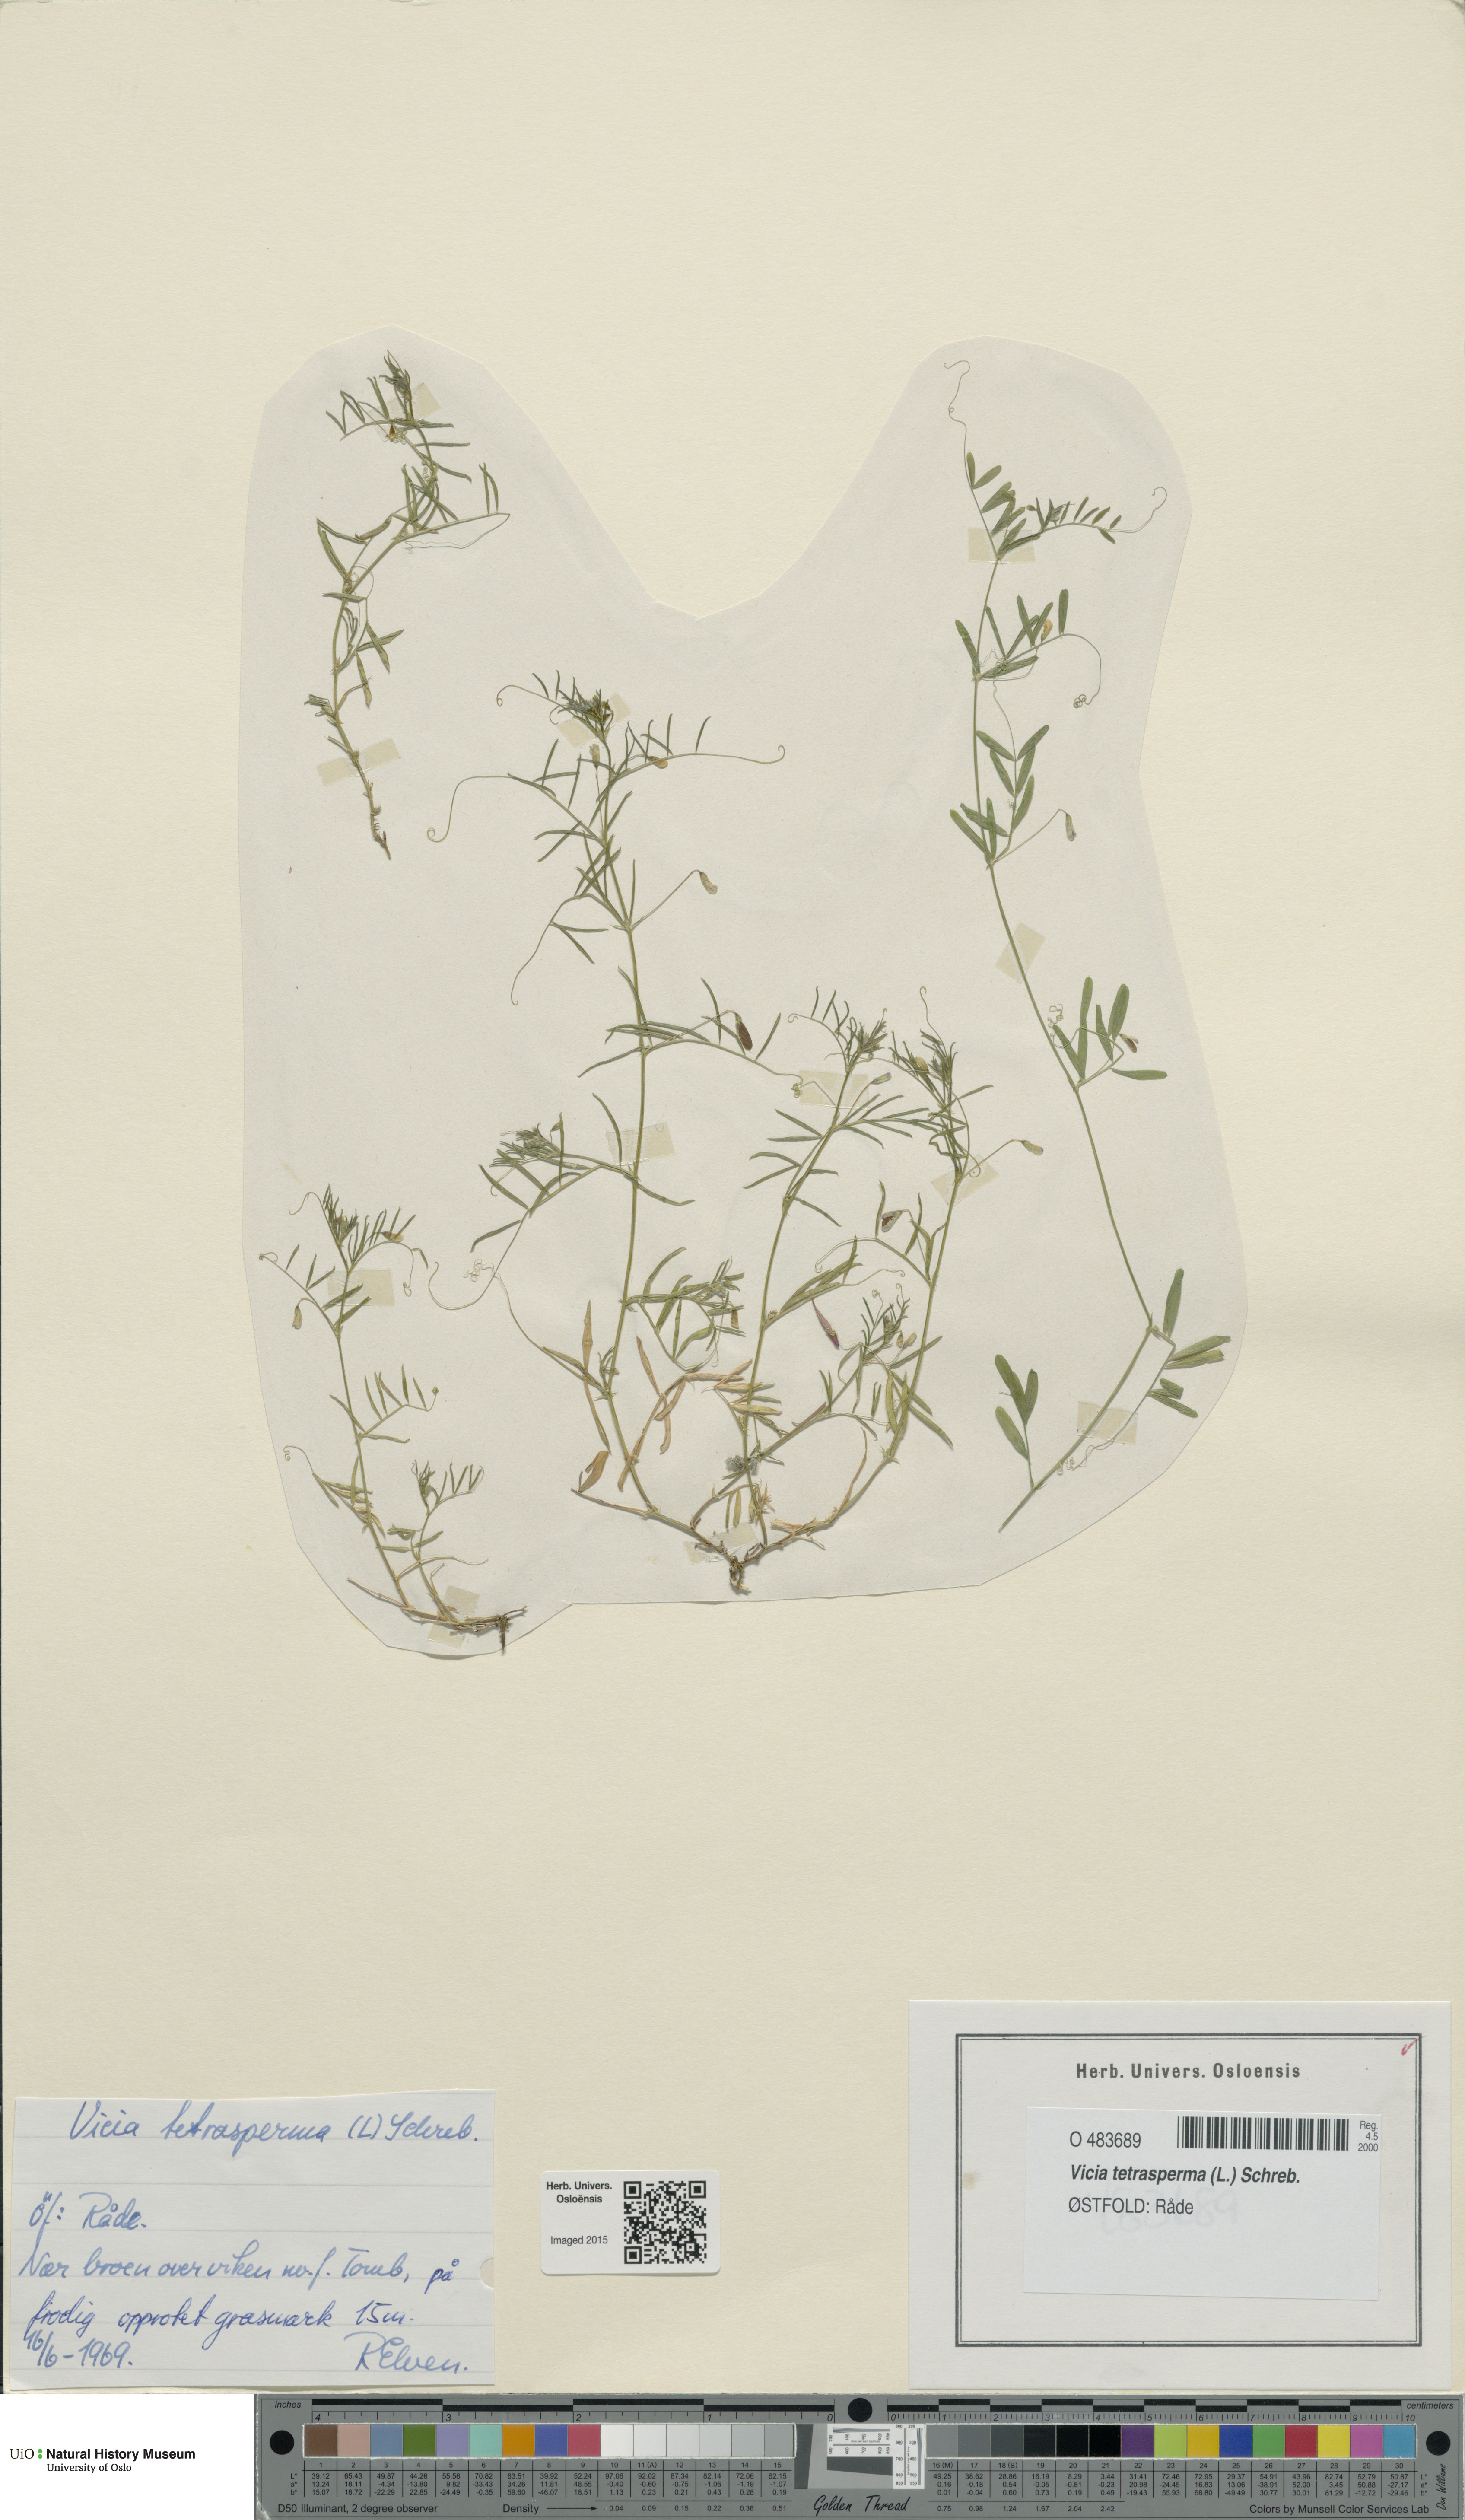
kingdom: Plantae
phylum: Tracheophyta
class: Magnoliopsida
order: Fabales
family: Fabaceae
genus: Vicia
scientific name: Vicia tetrasperma
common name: Smooth tare
